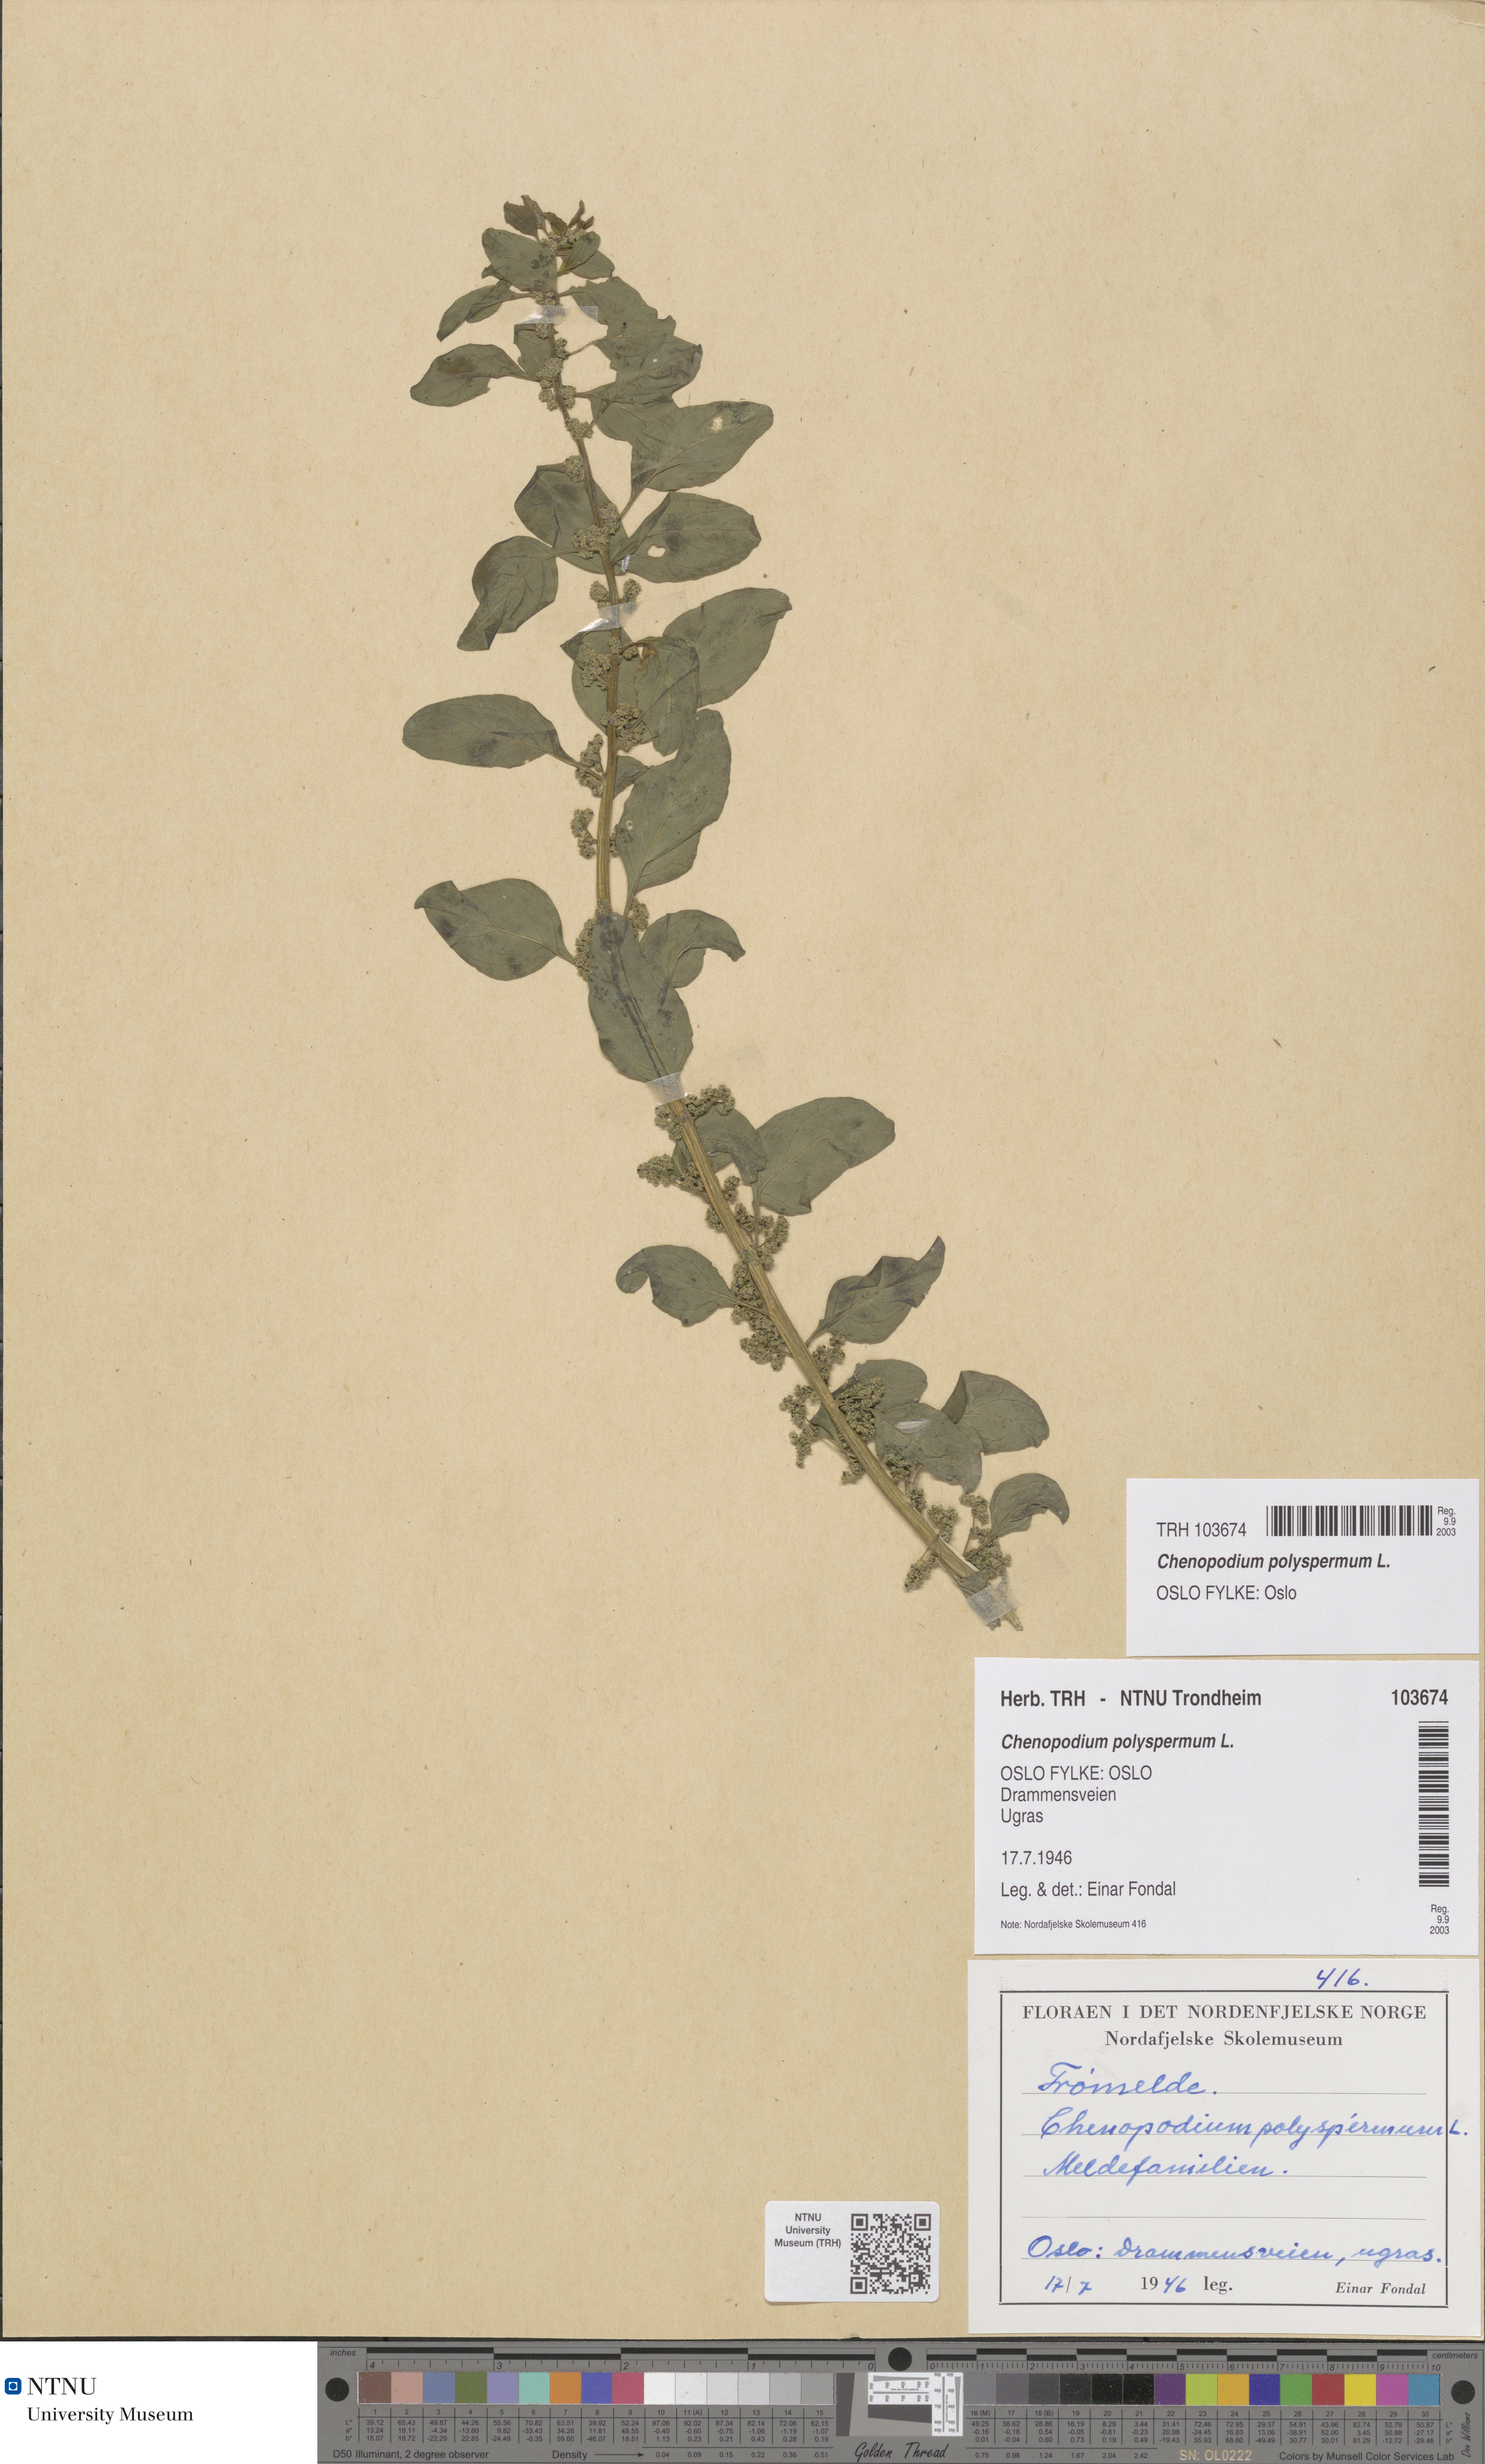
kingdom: Plantae
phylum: Tracheophyta
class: Magnoliopsida
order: Caryophyllales
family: Amaranthaceae
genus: Lipandra
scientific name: Lipandra polysperma
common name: Many-seed goosefoot
